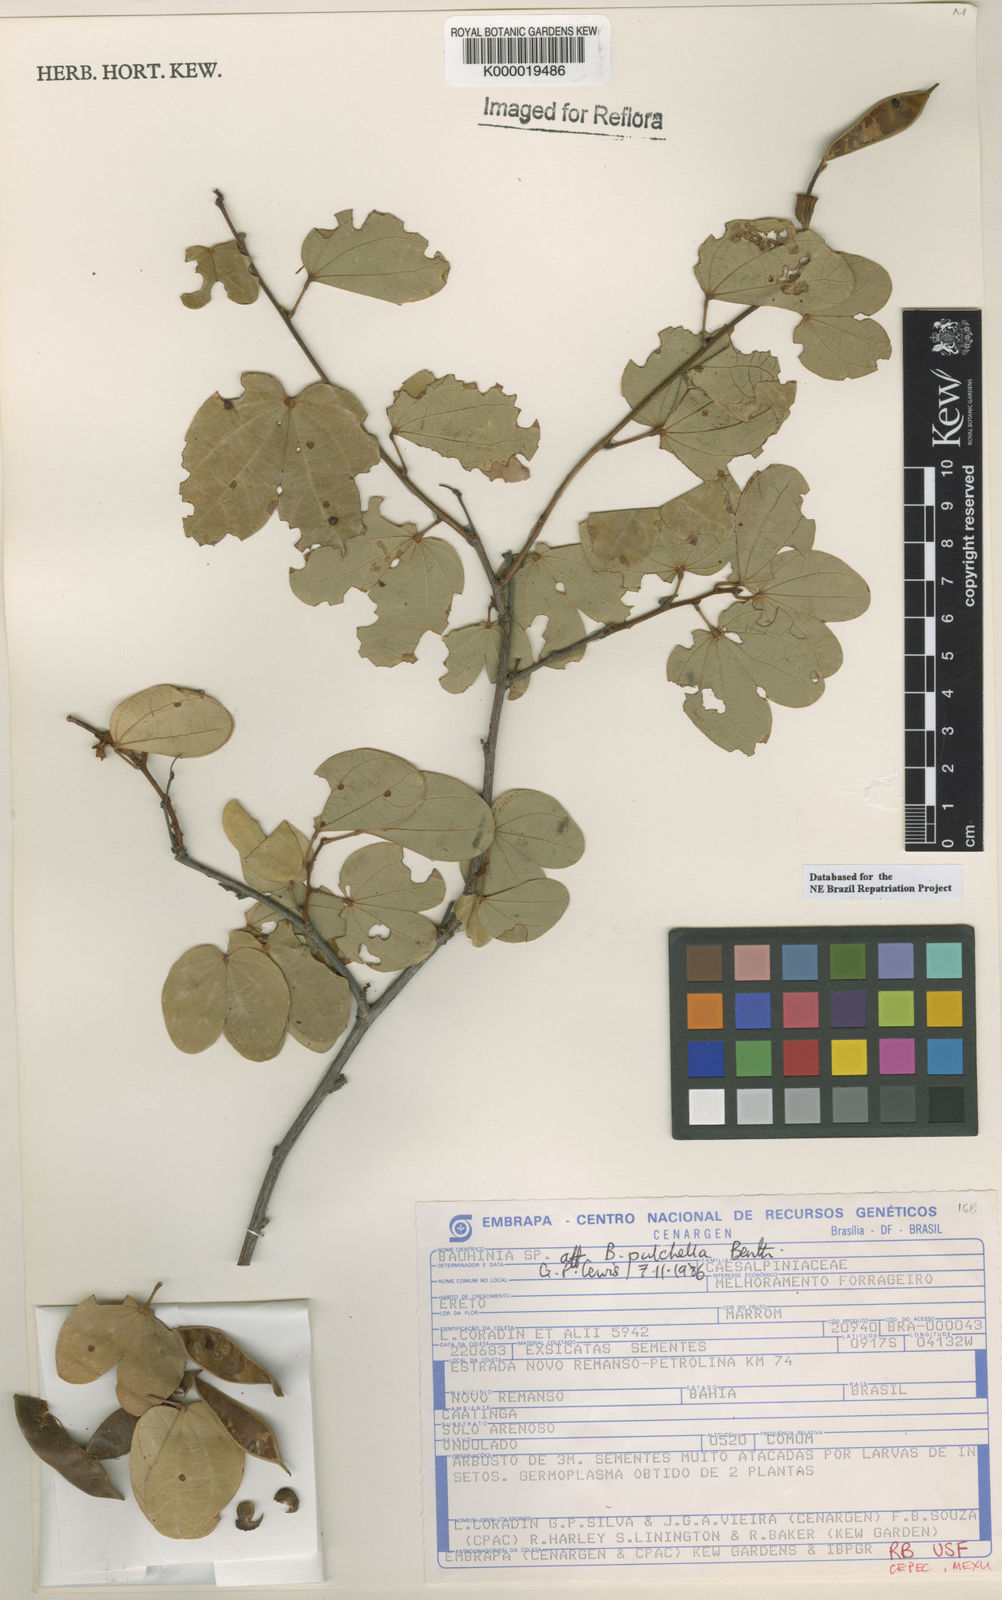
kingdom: Plantae
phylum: Tracheophyta
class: Magnoliopsida
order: Fabales
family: Fabaceae
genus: Bauhinia
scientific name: Bauhinia pulchella
